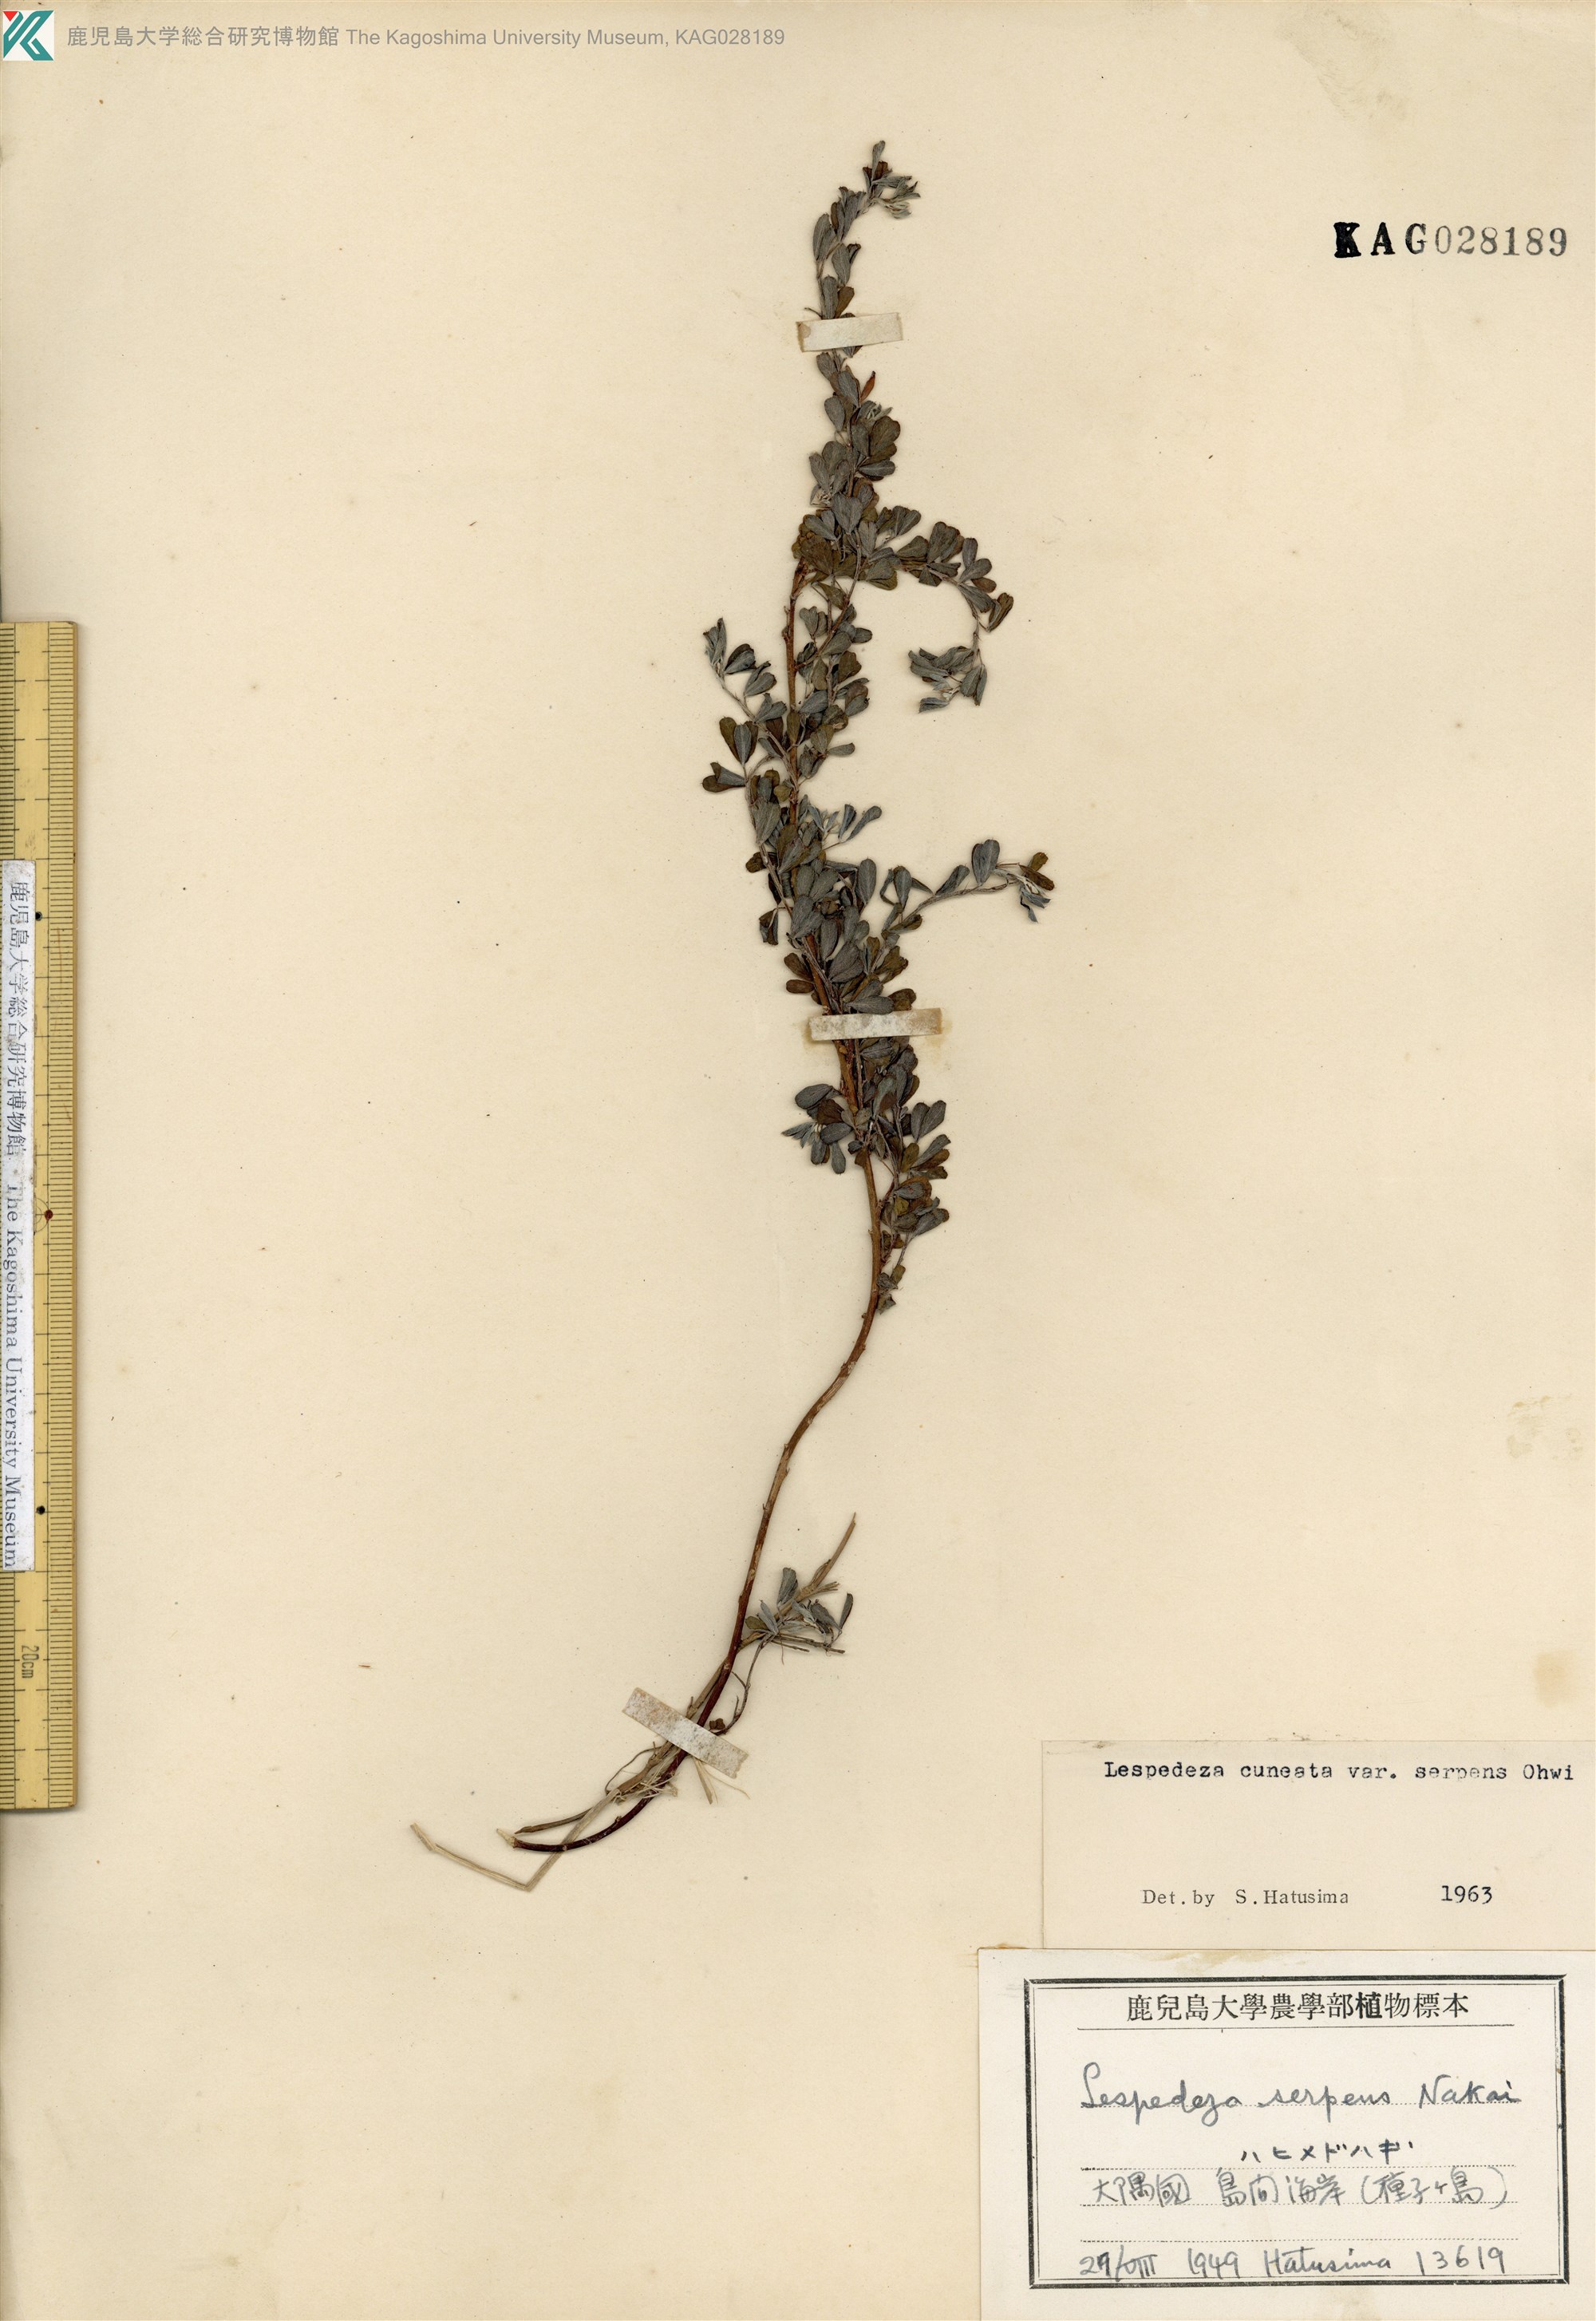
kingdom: Plantae
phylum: Tracheophyta
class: Magnoliopsida
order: Fabales
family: Fabaceae
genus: Lespedeza
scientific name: Lespedeza cuneata
